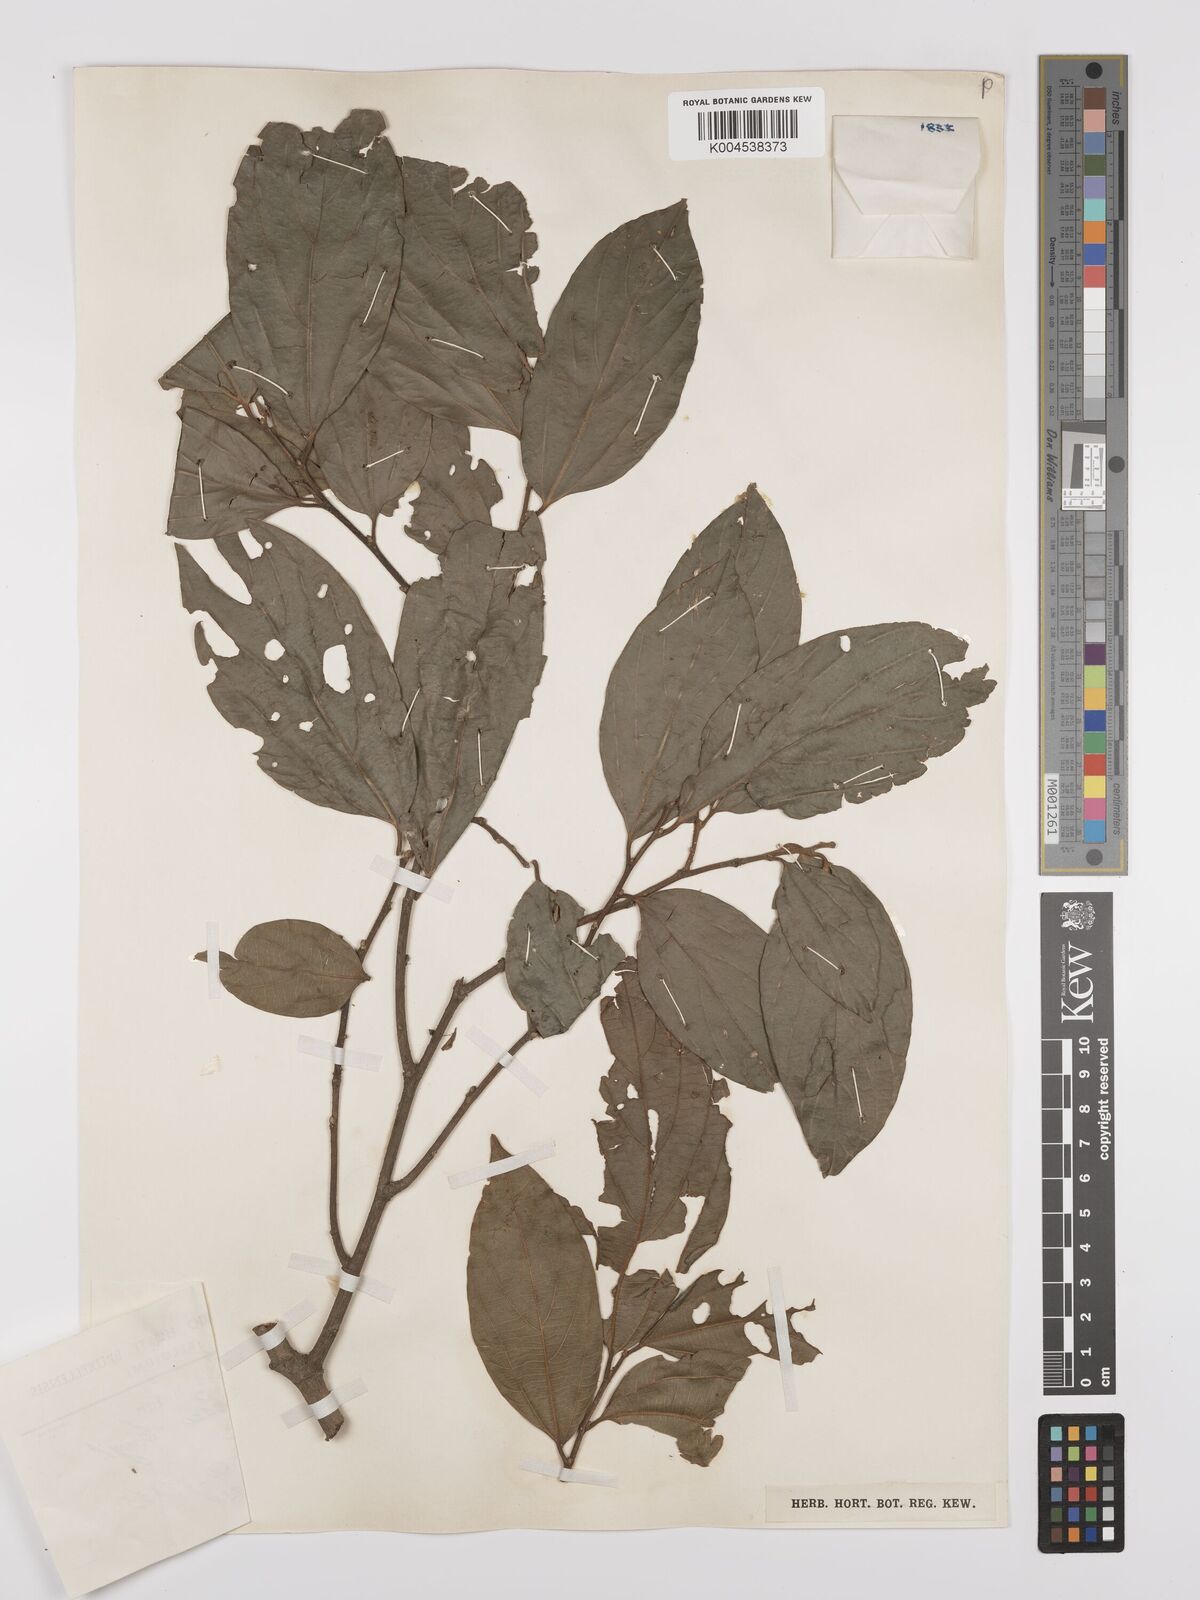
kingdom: Plantae
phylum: Tracheophyta
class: Magnoliopsida
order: Rosales
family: Cannabaceae
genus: Celtis
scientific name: Celtis zenkeri
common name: African celtis
